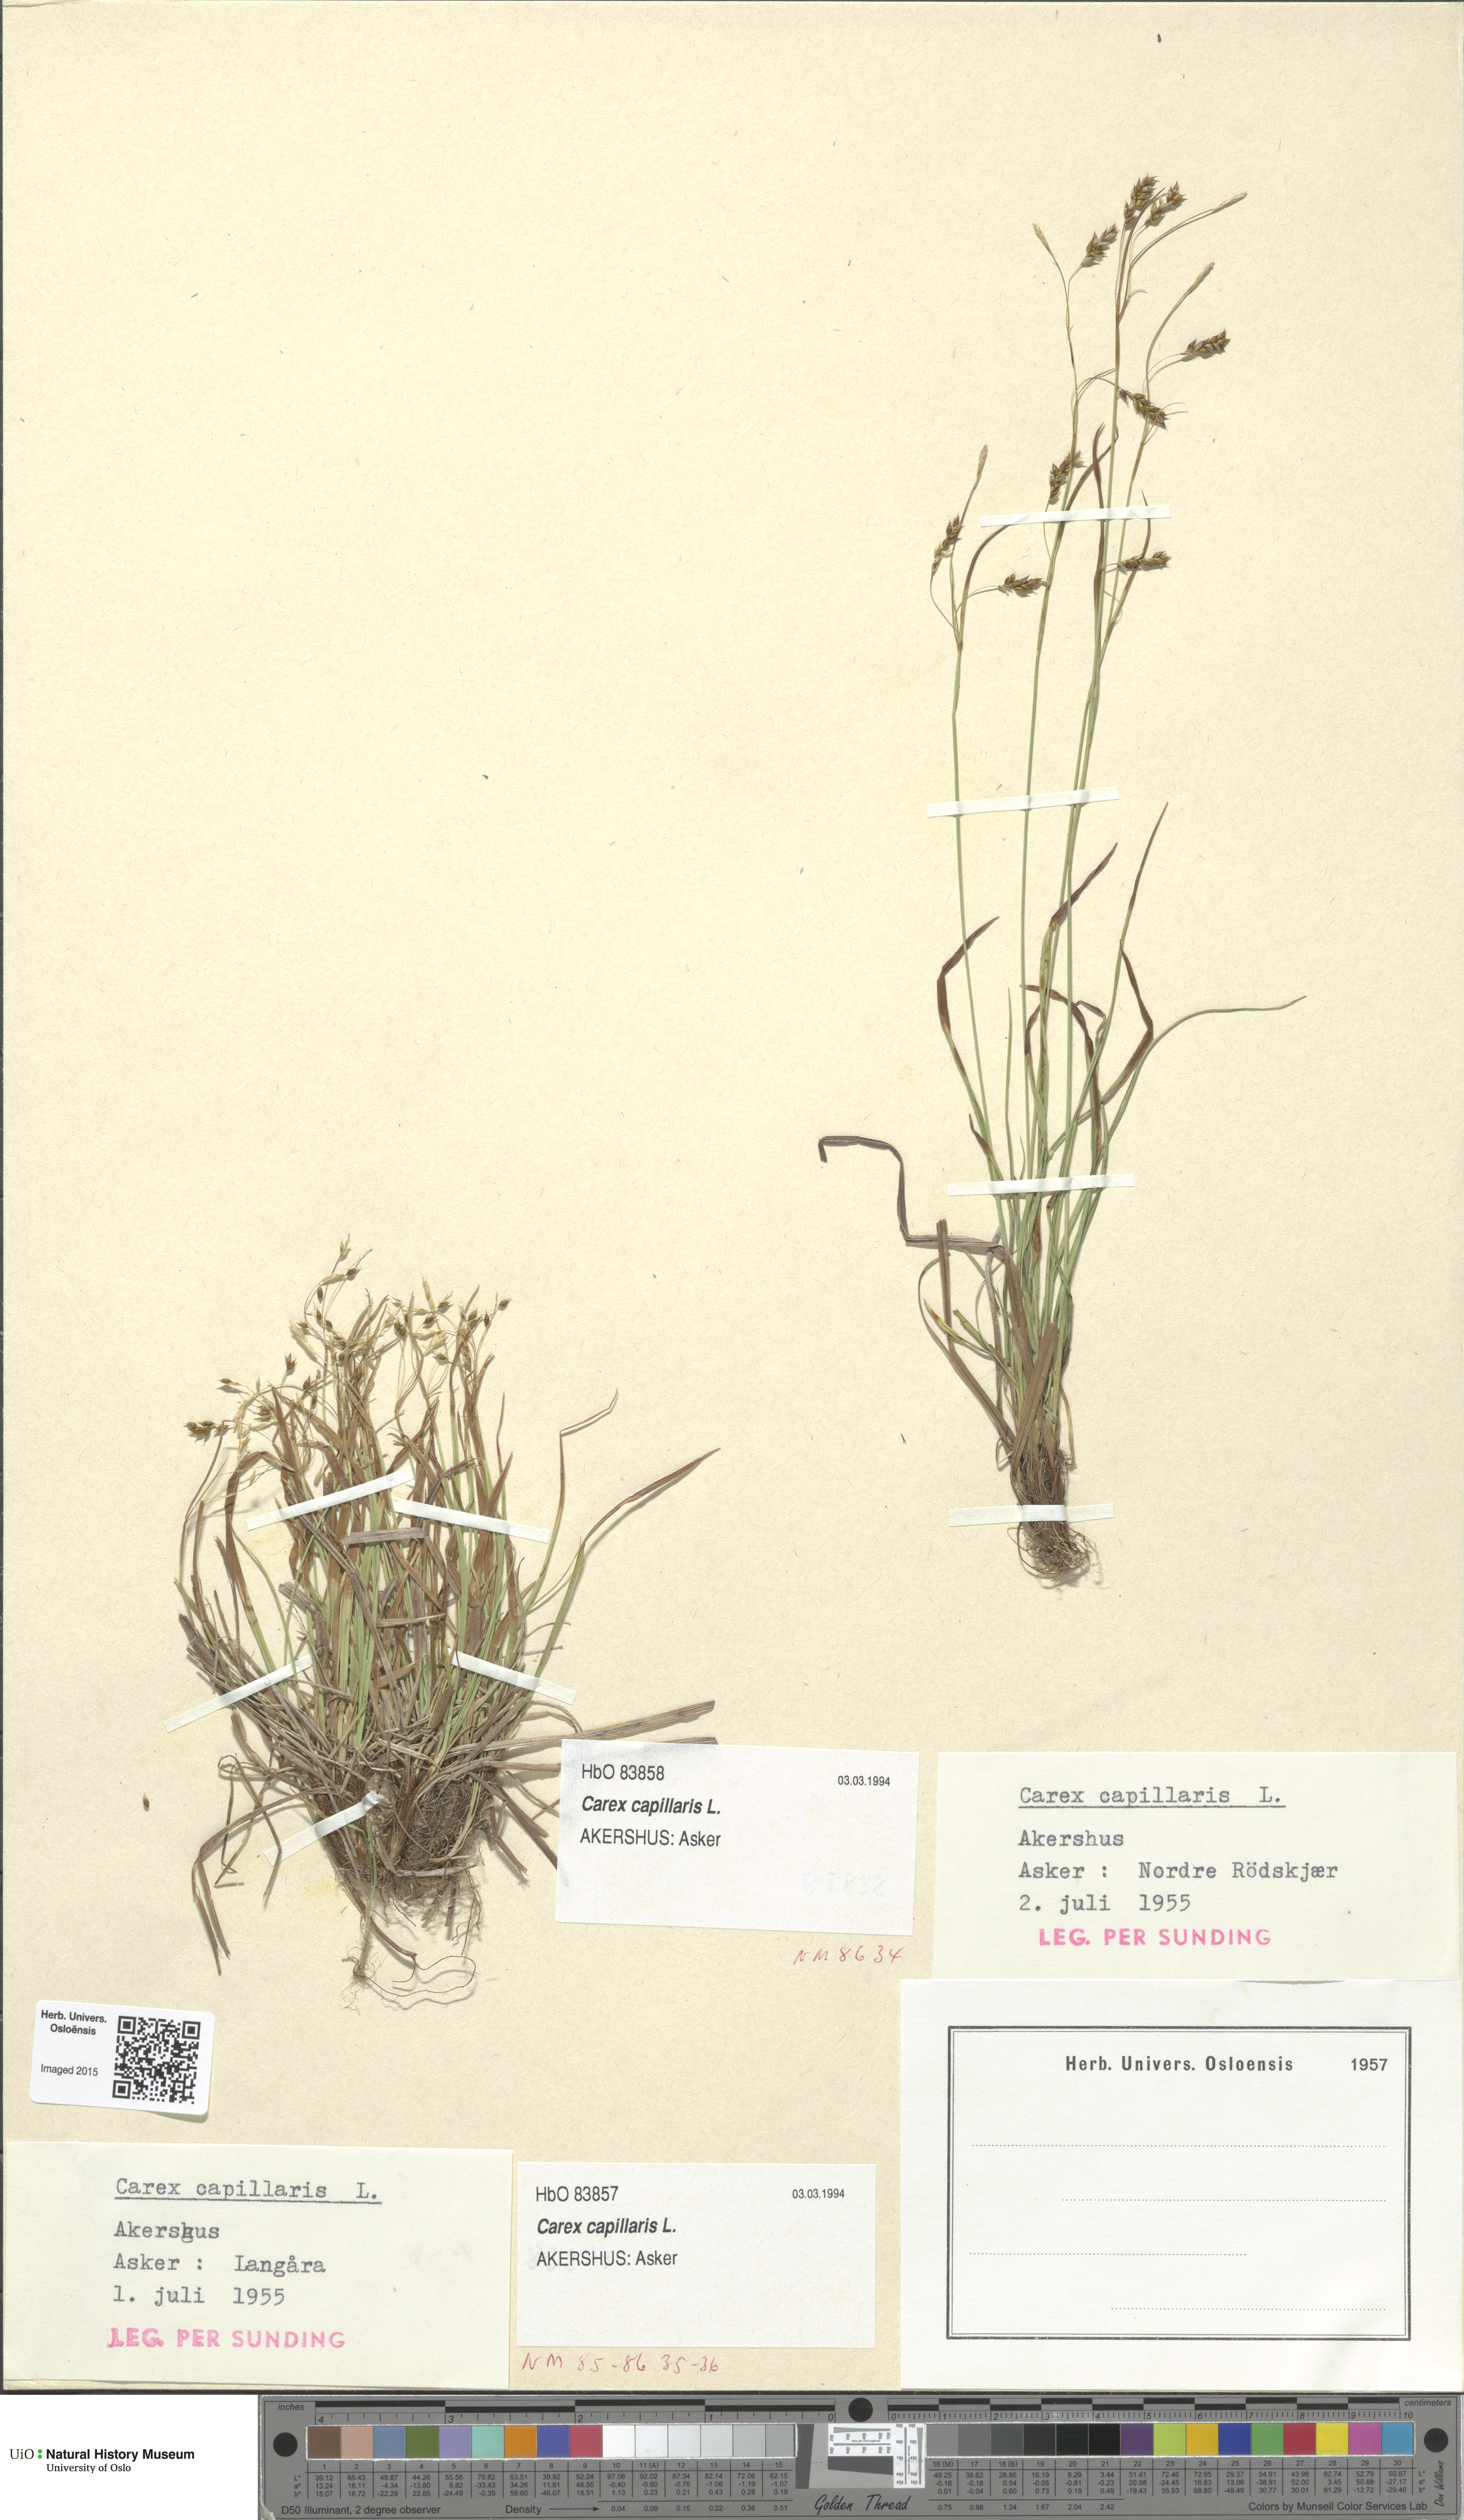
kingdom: Plantae
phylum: Tracheophyta
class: Liliopsida
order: Poales
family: Cyperaceae
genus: Carex
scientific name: Carex capillaris
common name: Hair sedge
